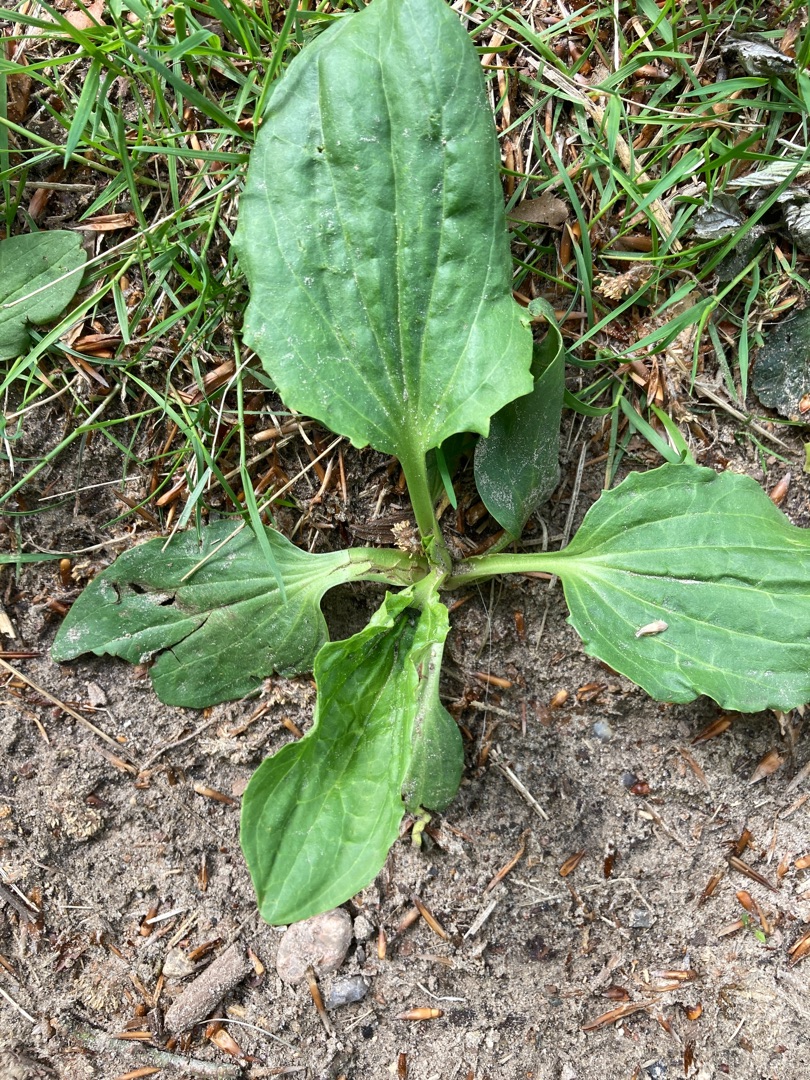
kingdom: Plantae
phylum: Tracheophyta
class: Magnoliopsida
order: Lamiales
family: Plantaginaceae
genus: Plantago
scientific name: Plantago major
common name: Glat vejbred
